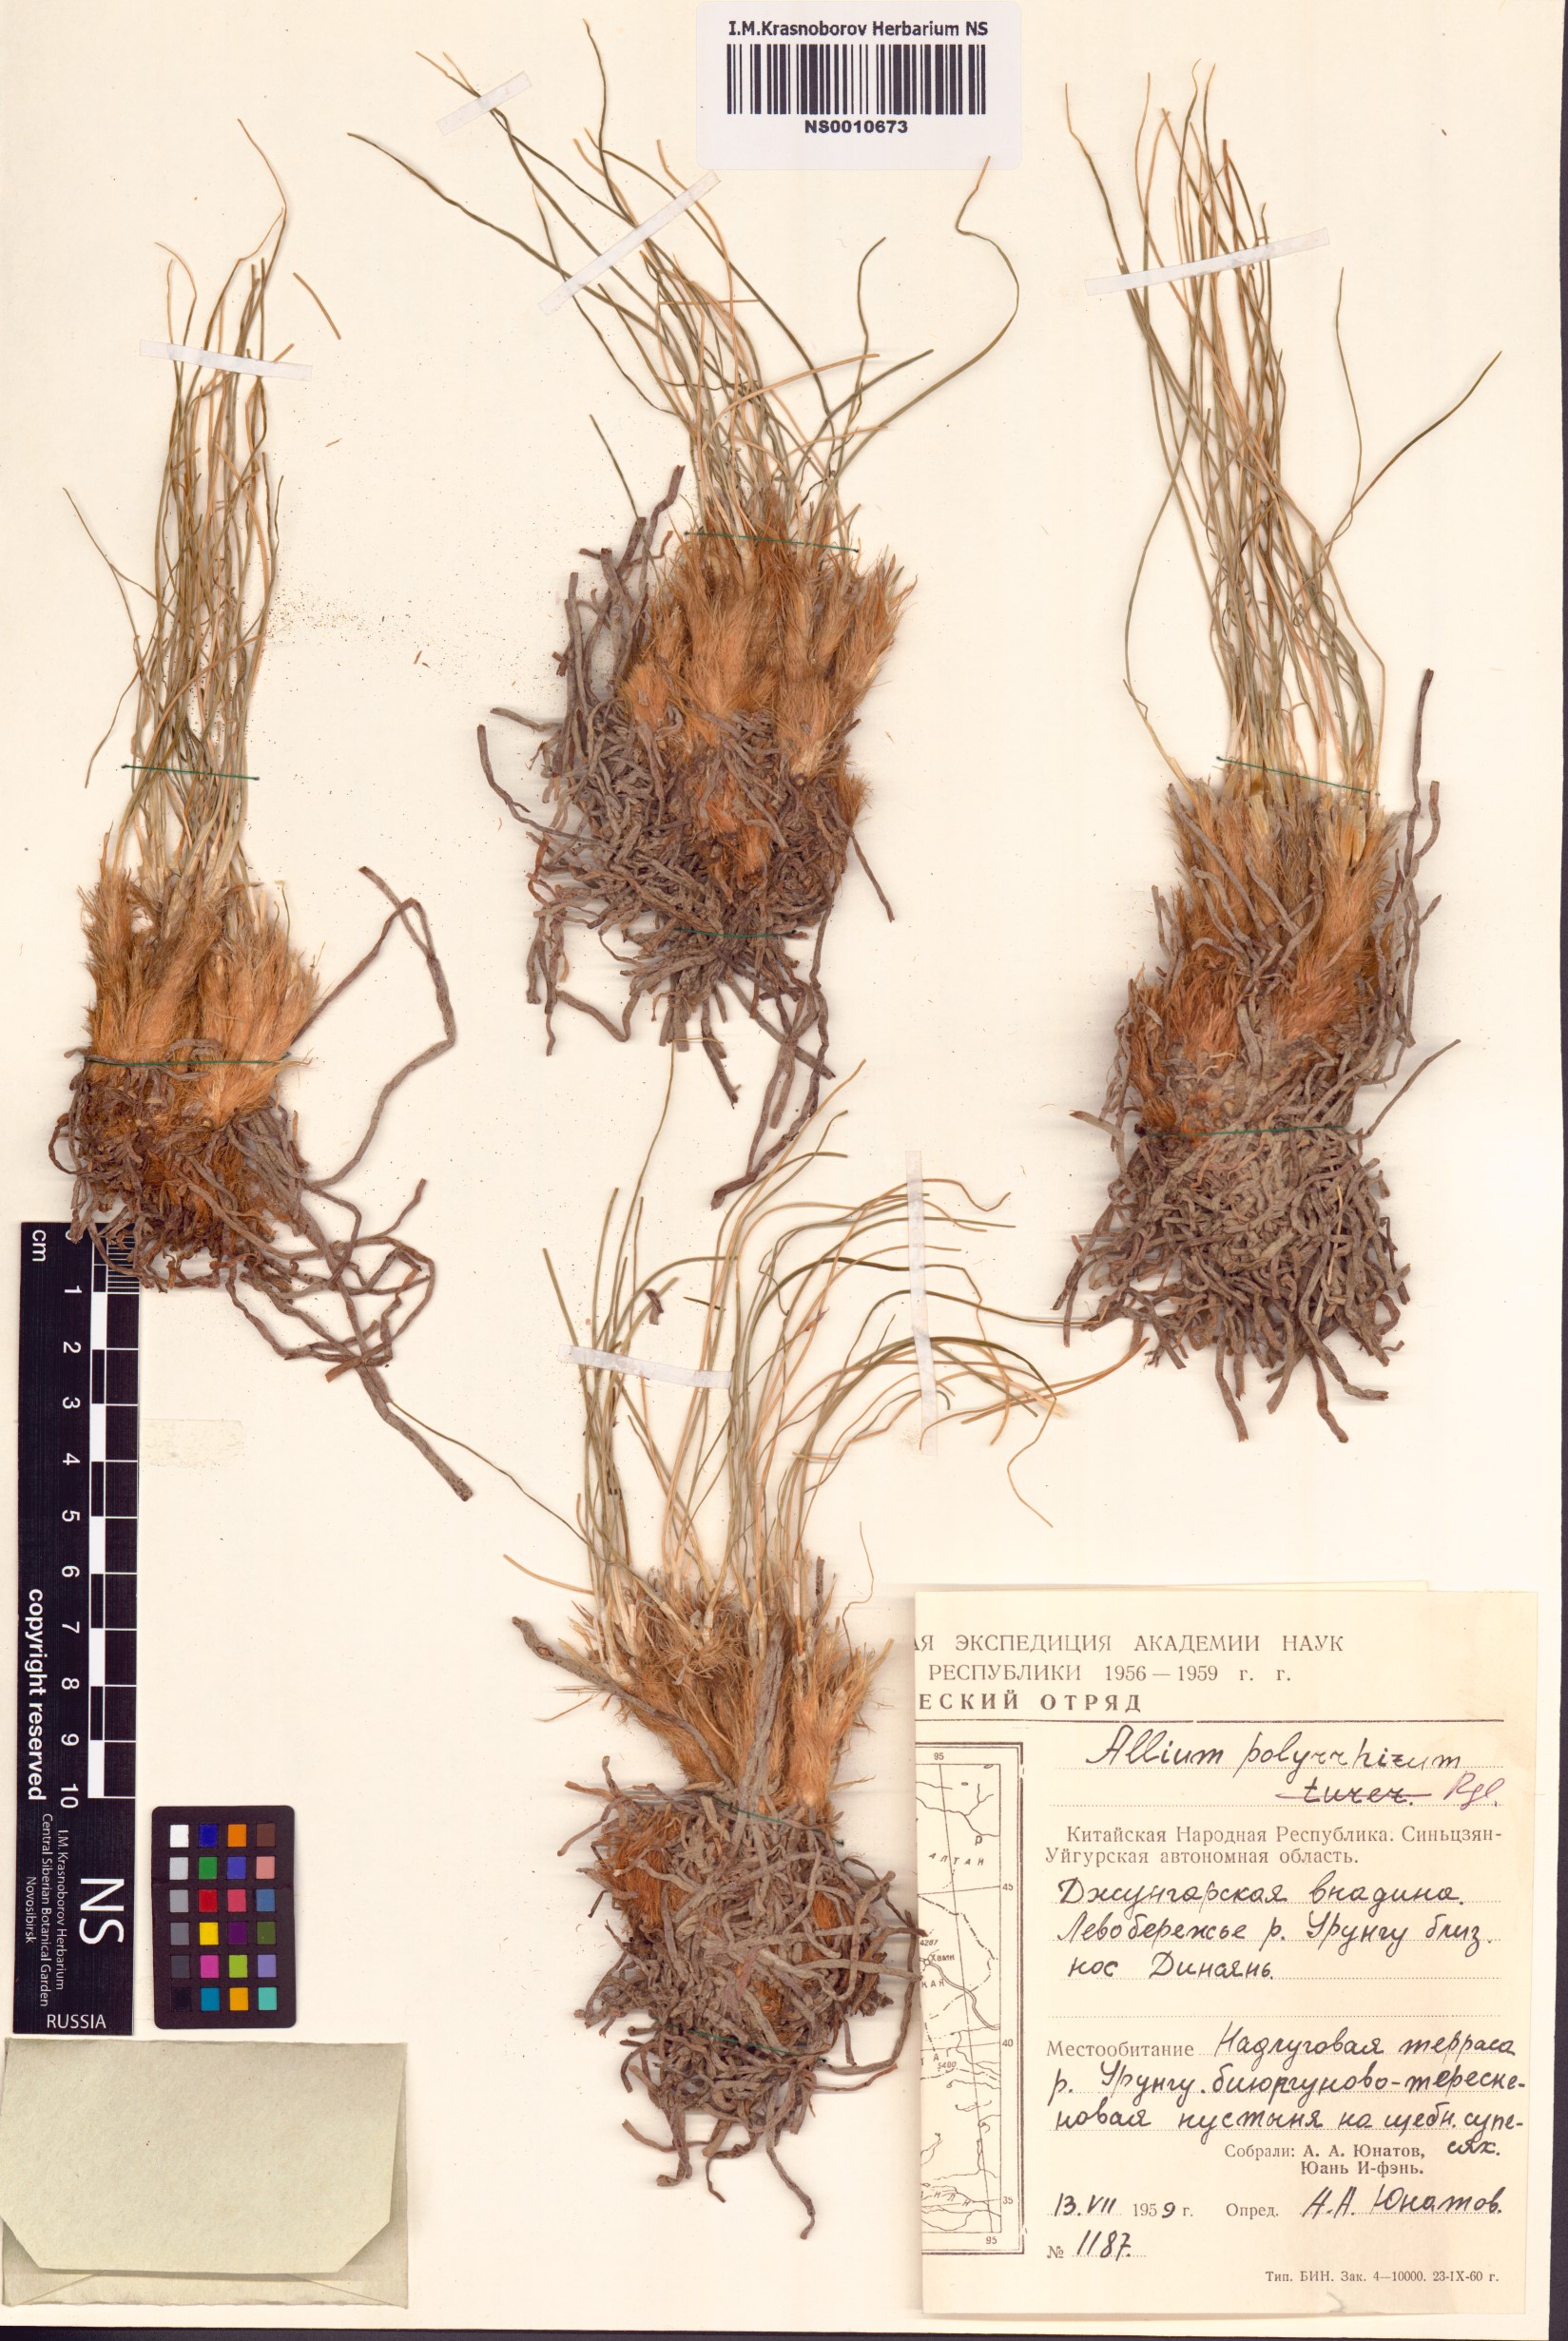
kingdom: Plantae
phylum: Tracheophyta
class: Liliopsida
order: Asparagales
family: Amaryllidaceae
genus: Allium
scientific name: Allium polyrhizum
